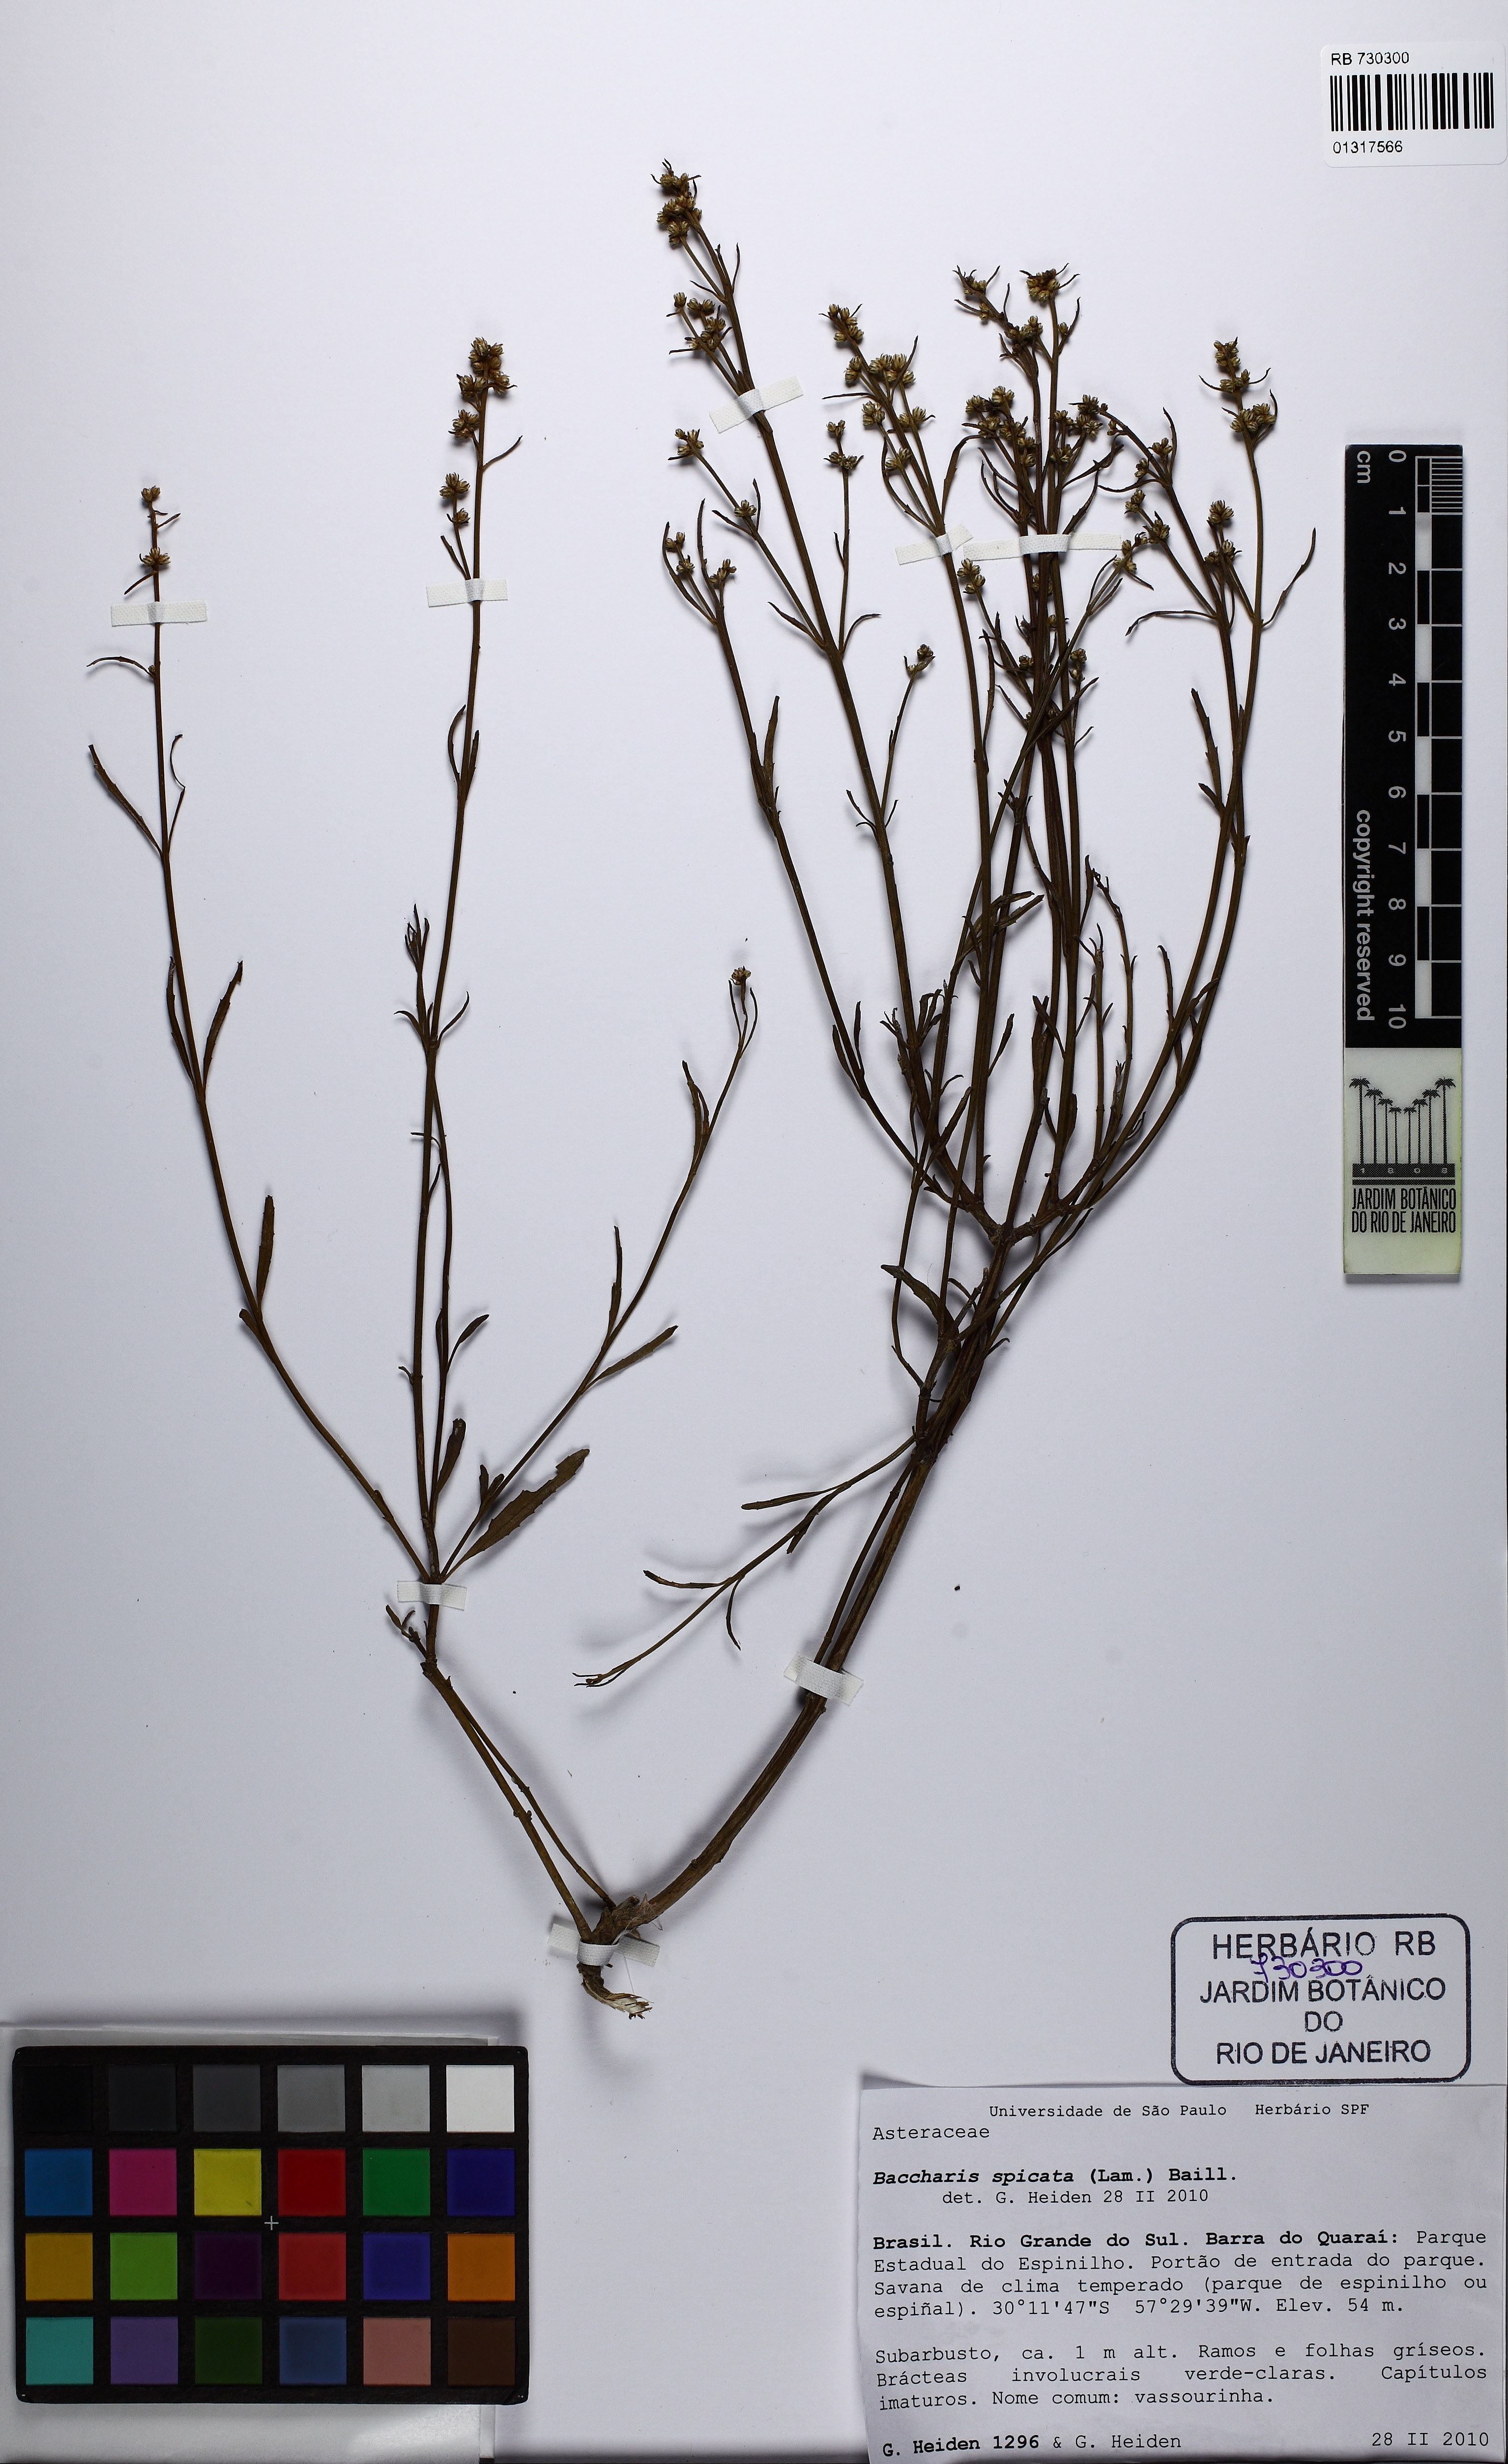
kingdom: Plantae
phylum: Tracheophyta
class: Magnoliopsida
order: Asterales
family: Asteraceae
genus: Baccharis
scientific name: Baccharis spicata
